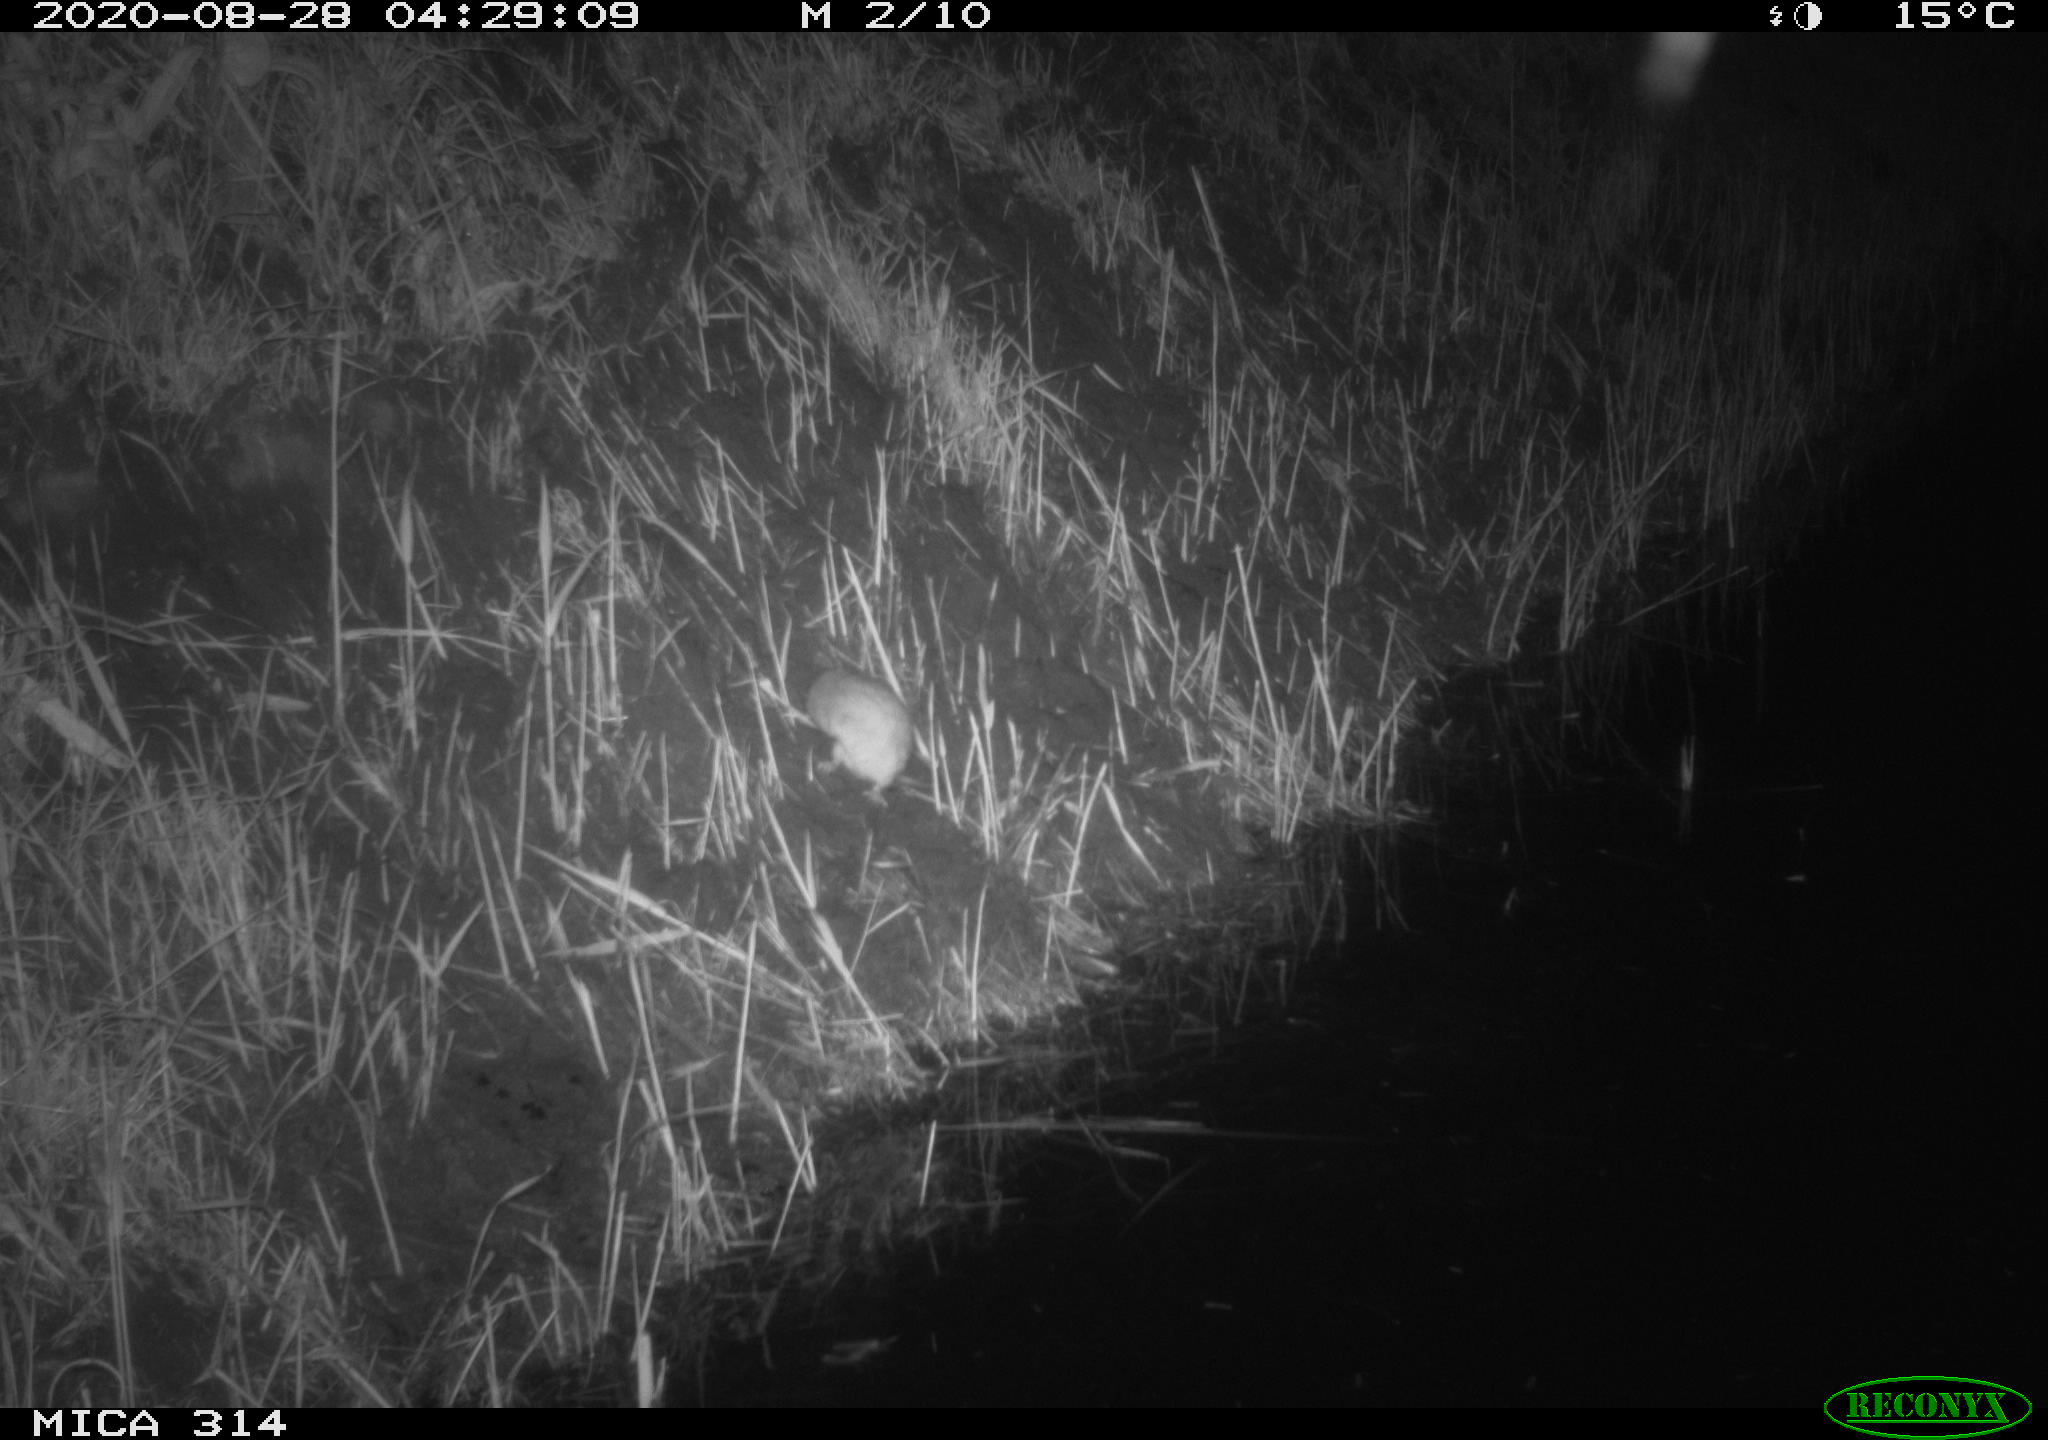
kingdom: Animalia
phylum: Chordata
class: Mammalia
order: Rodentia
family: Muridae
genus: Rattus
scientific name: Rattus norvegicus
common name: Brown rat
